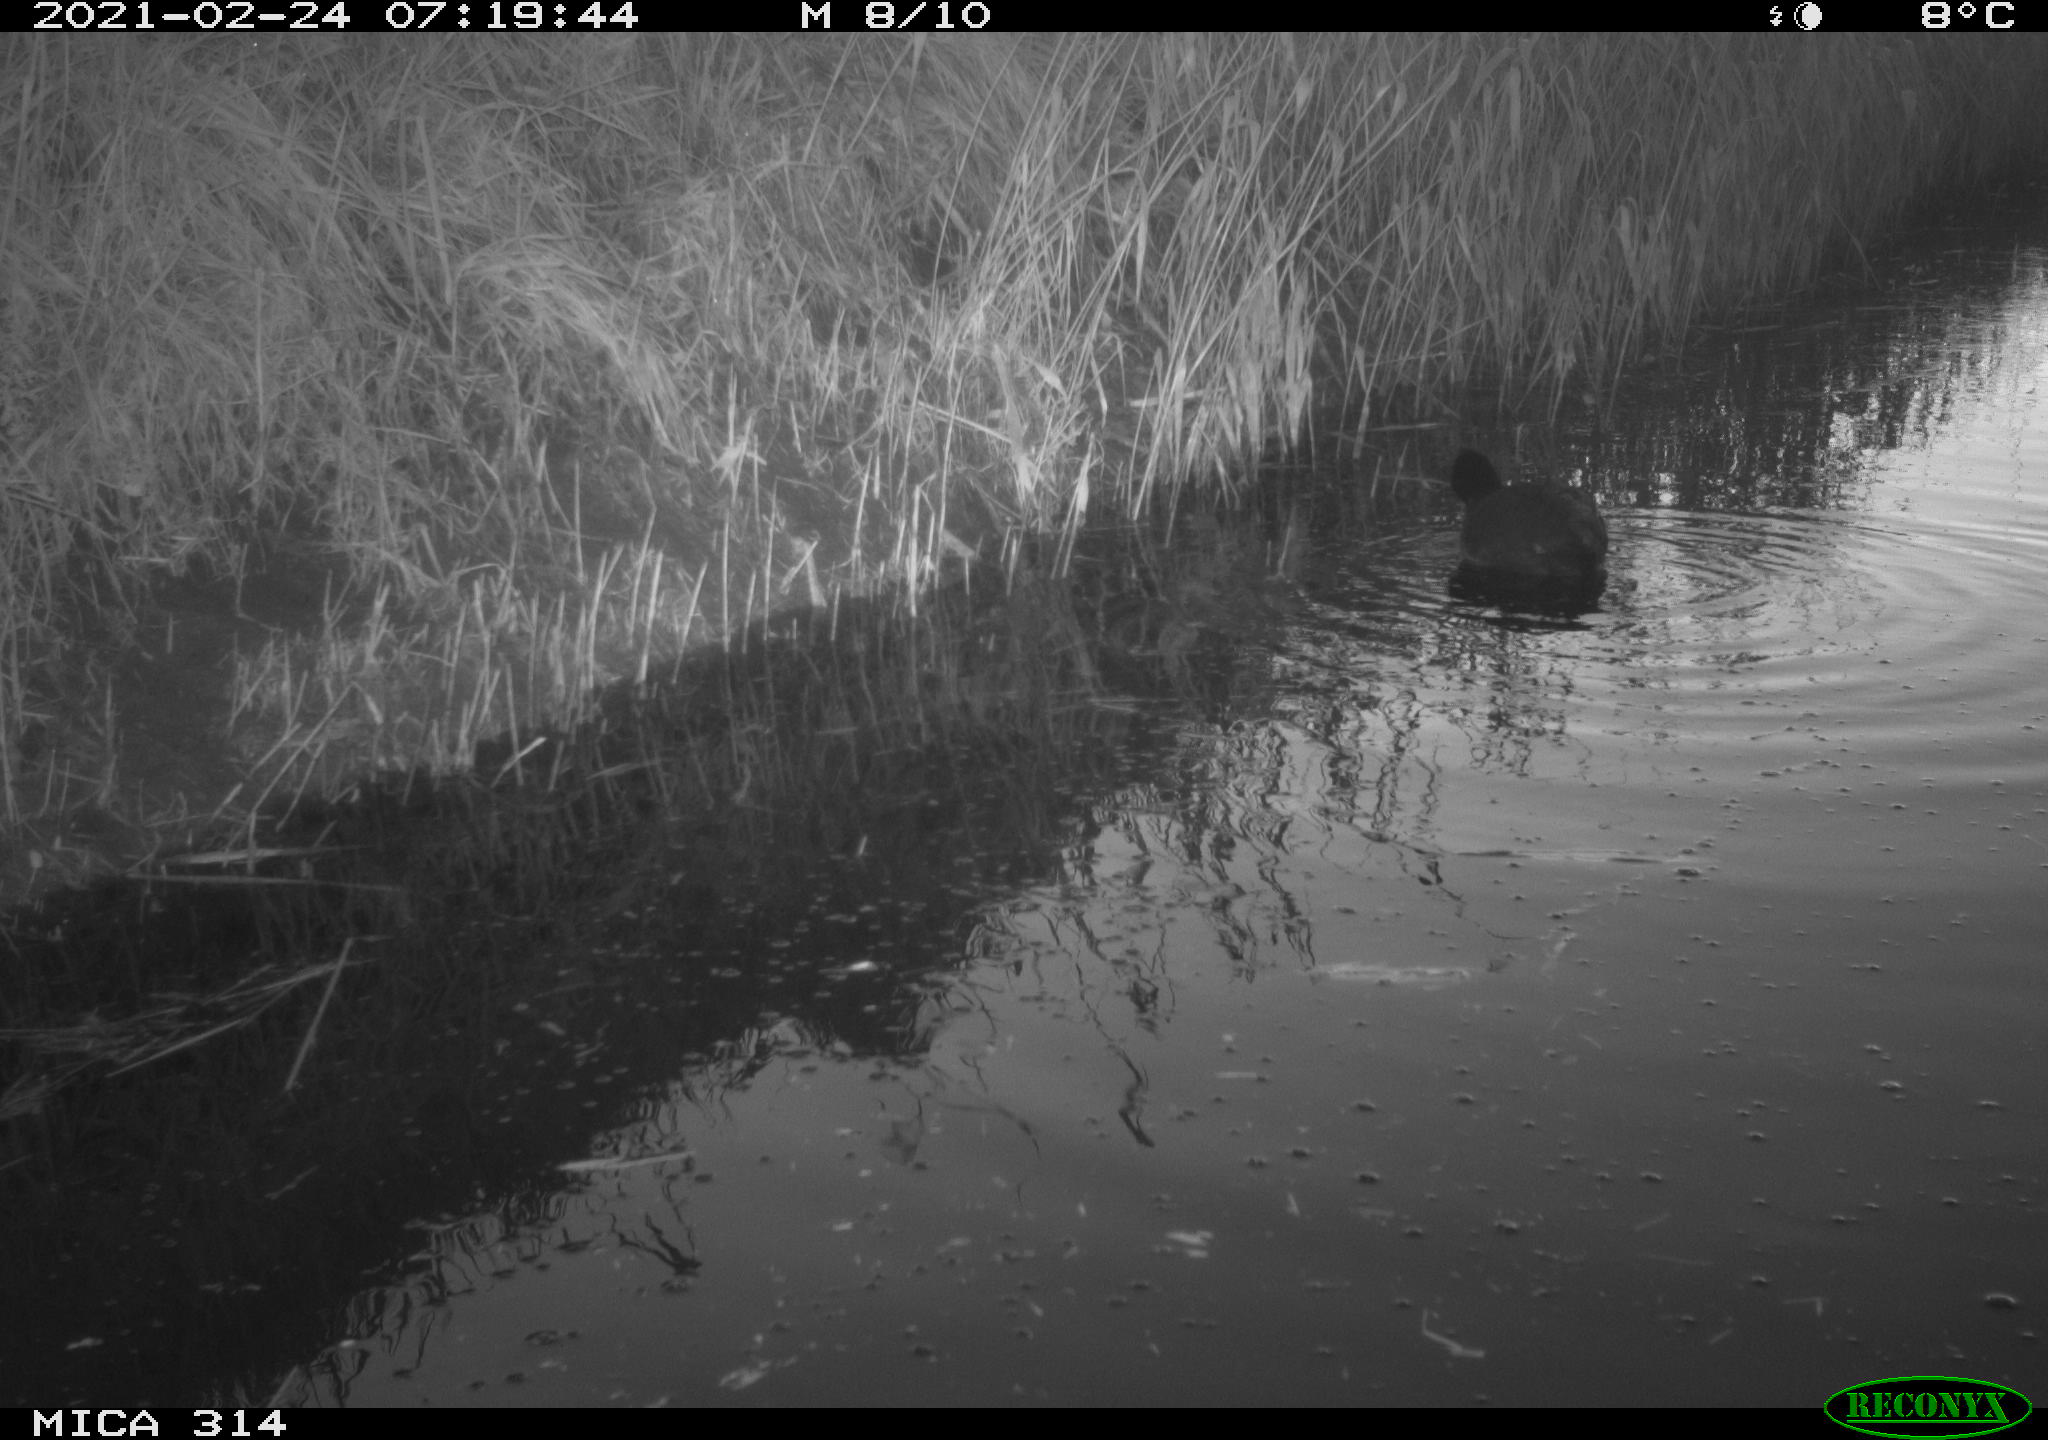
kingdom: Animalia
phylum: Chordata
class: Aves
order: Gruiformes
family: Rallidae
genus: Fulica
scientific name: Fulica atra
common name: Eurasian coot
